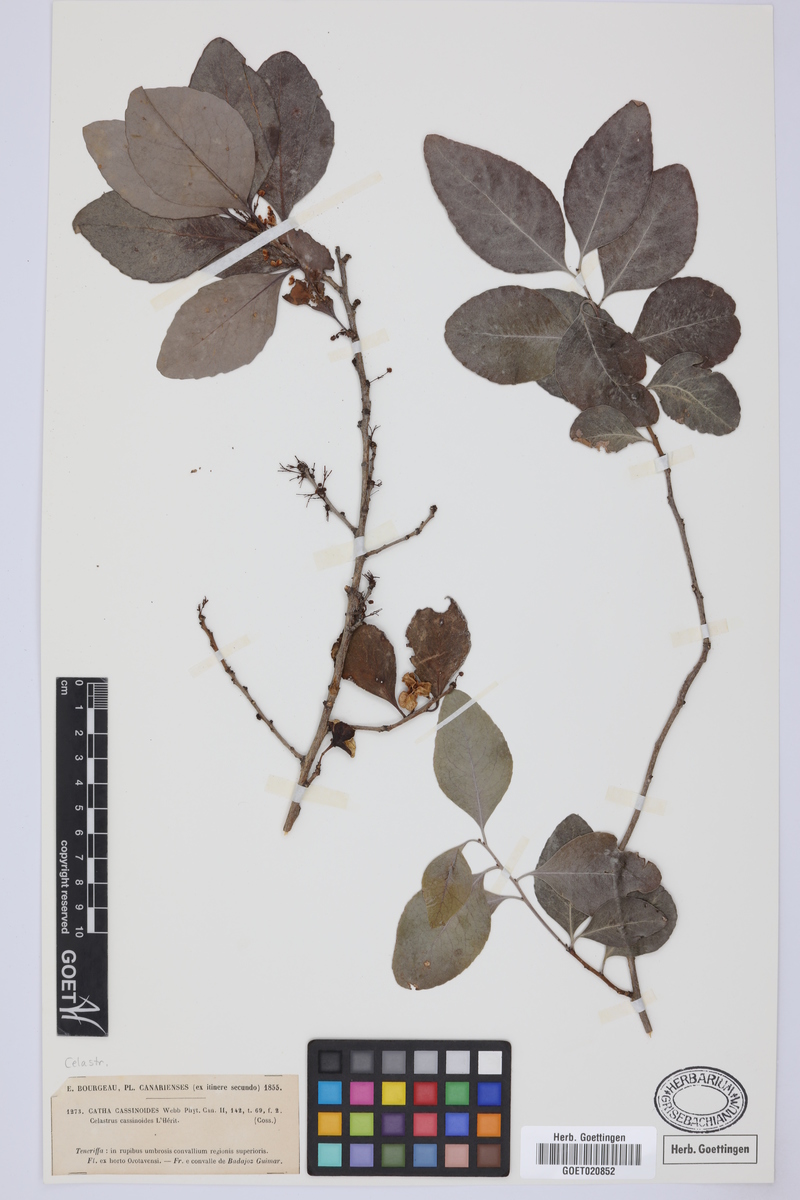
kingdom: Plantae
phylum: Tracheophyta
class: Magnoliopsida
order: Celastrales
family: Celastraceae
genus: Gymnosporia
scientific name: Gymnosporia cassinoides
